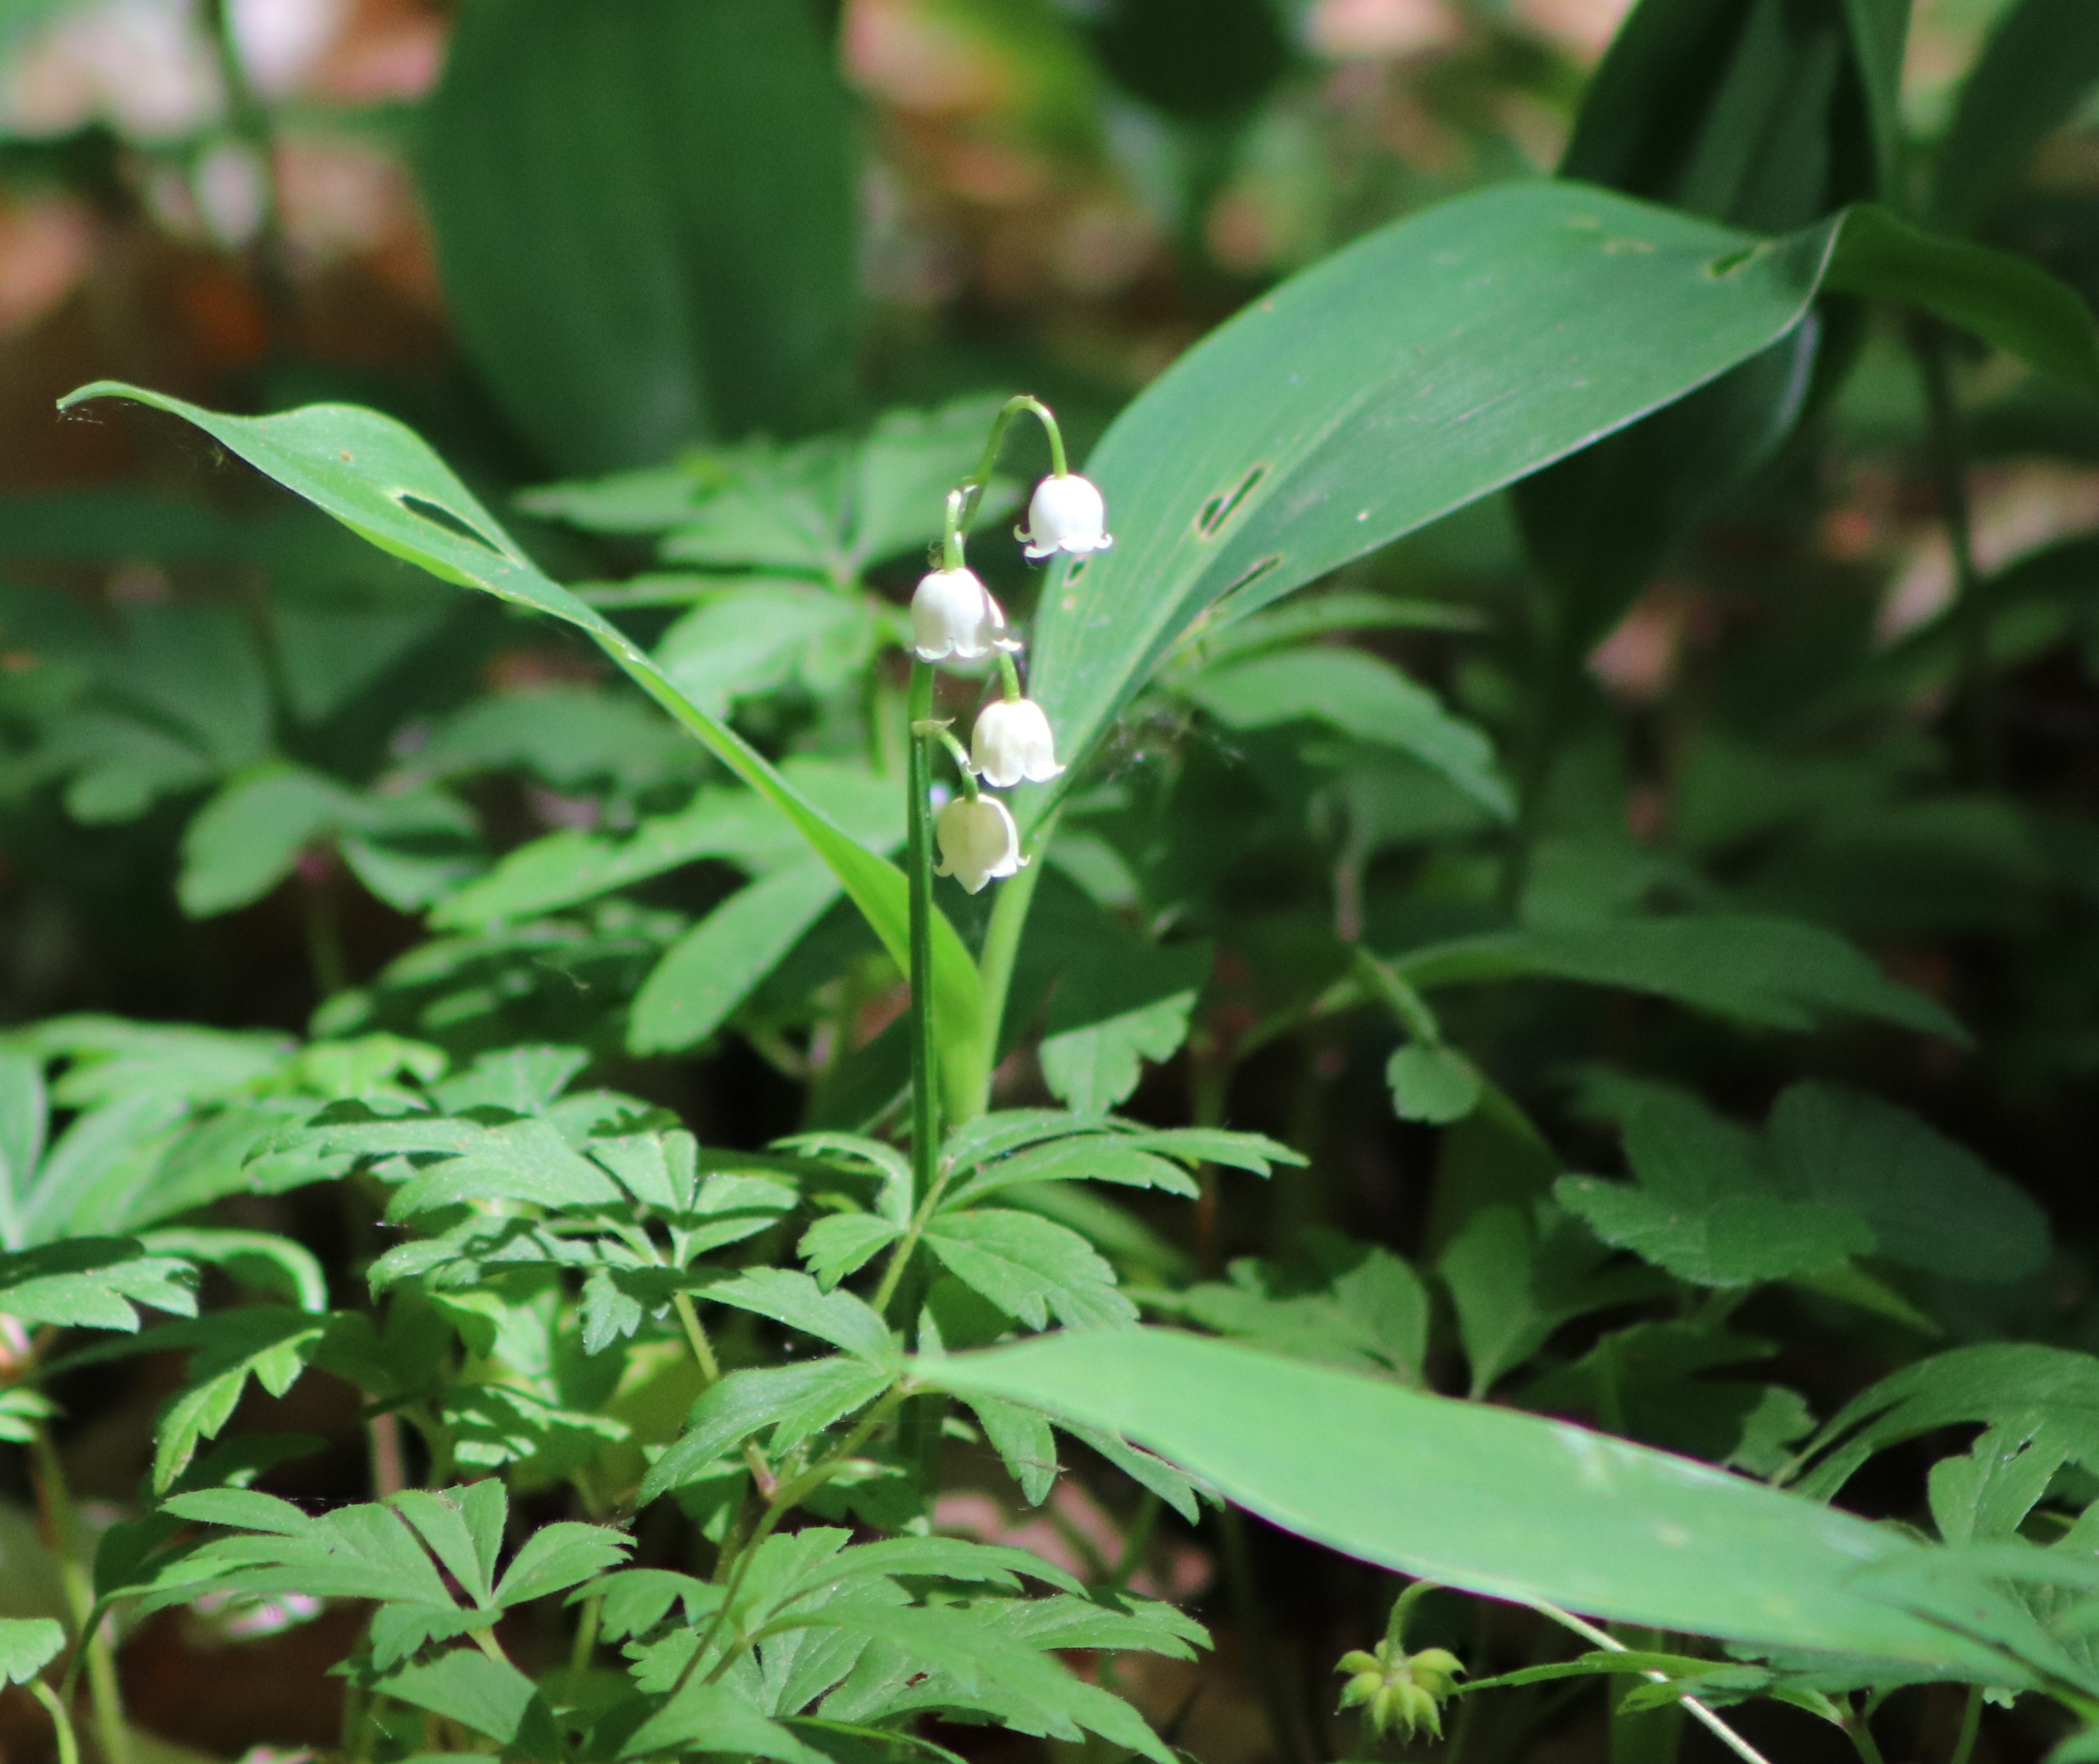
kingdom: Plantae
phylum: Tracheophyta
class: Liliopsida
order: Asparagales
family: Asparagaceae
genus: Convallaria
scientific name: Convallaria majalis
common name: Liljekonval
